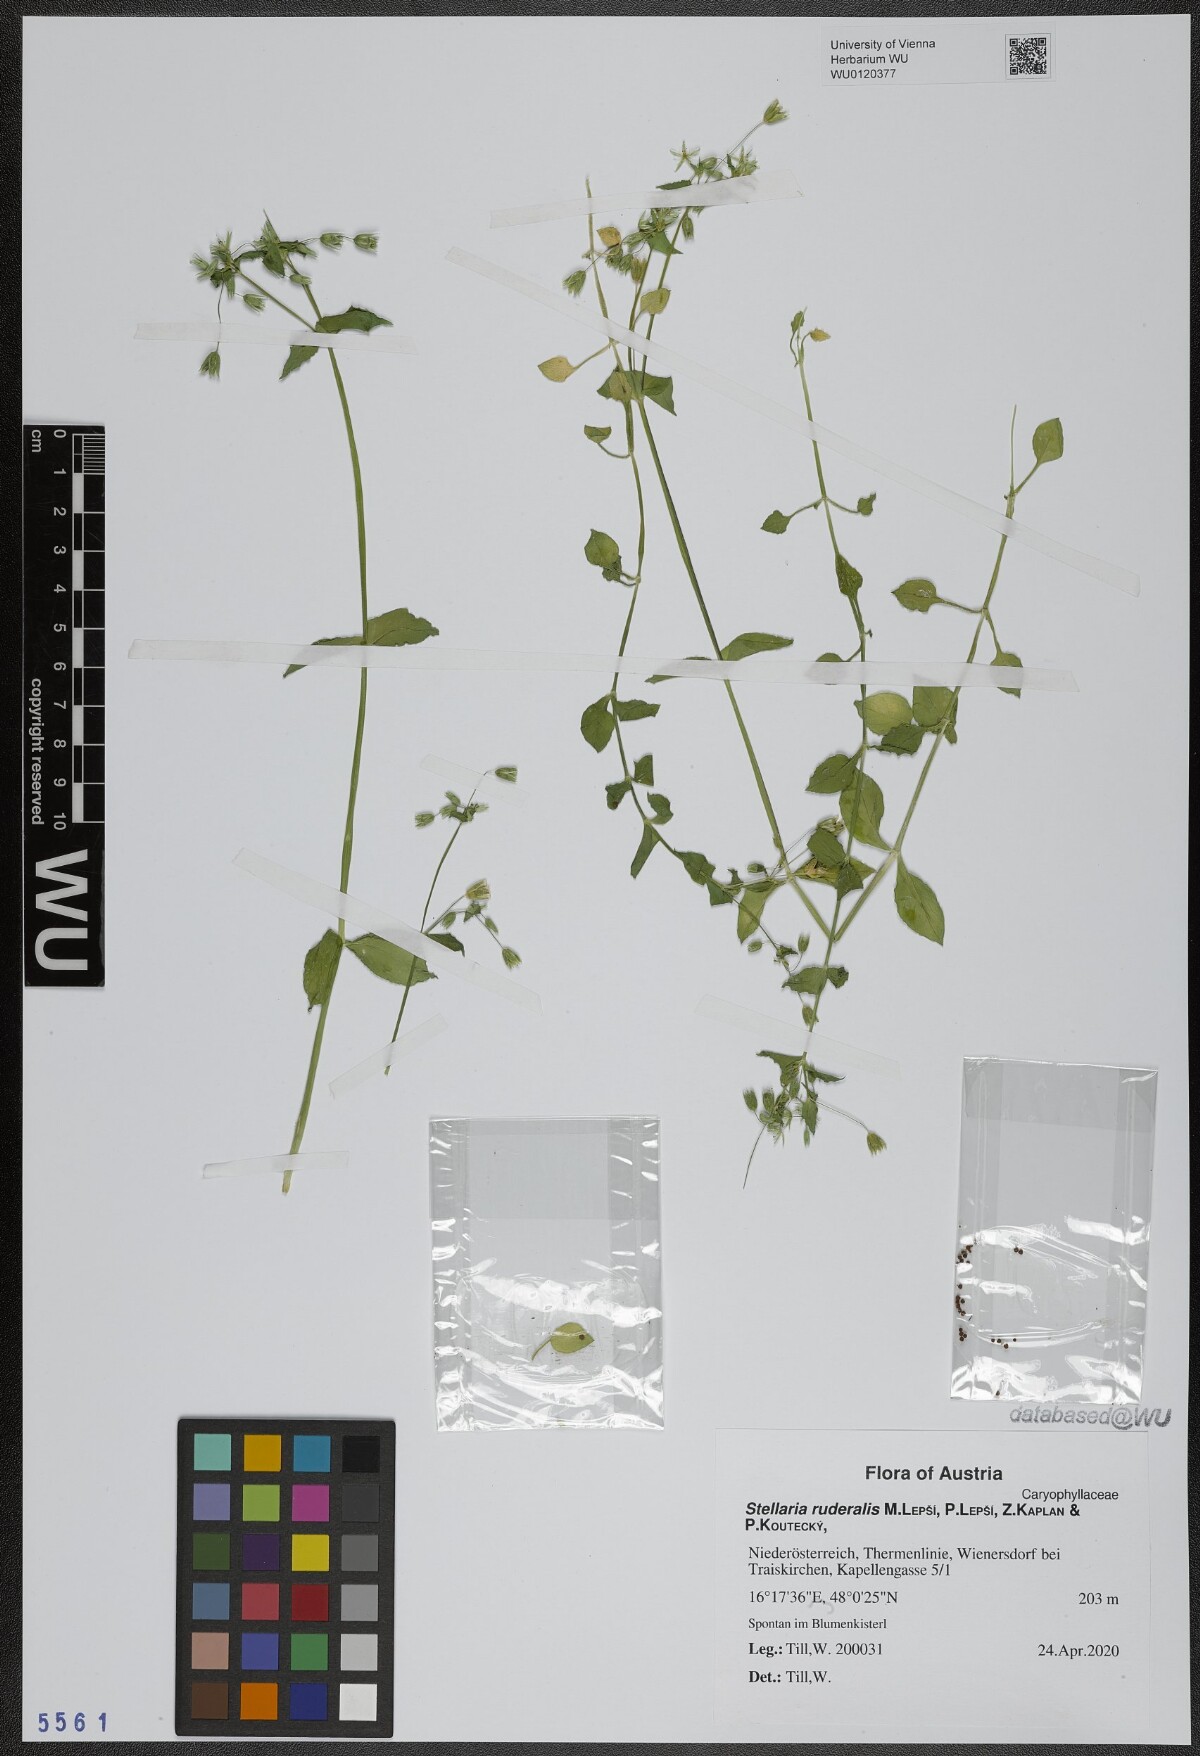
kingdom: Plantae
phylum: Tracheophyta
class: Magnoliopsida
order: Caryophyllales
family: Caryophyllaceae
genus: Stellaria
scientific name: Stellaria ruderalis
